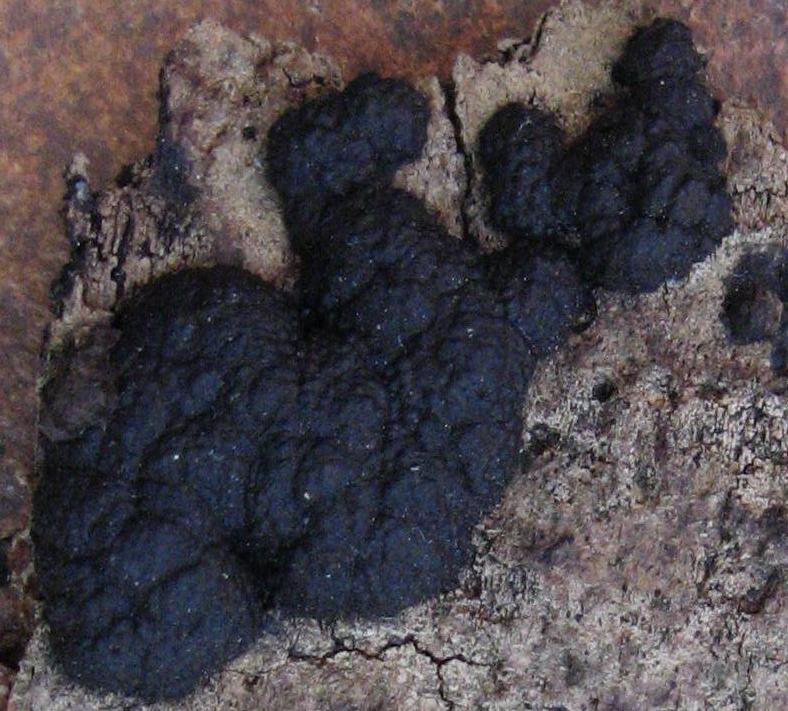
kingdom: Fungi
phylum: Ascomycota
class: Sordariomycetes
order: Xylariales
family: Hypoxylaceae
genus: Jackrogersella
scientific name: Jackrogersella multiformis
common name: foranderlig kulbær
